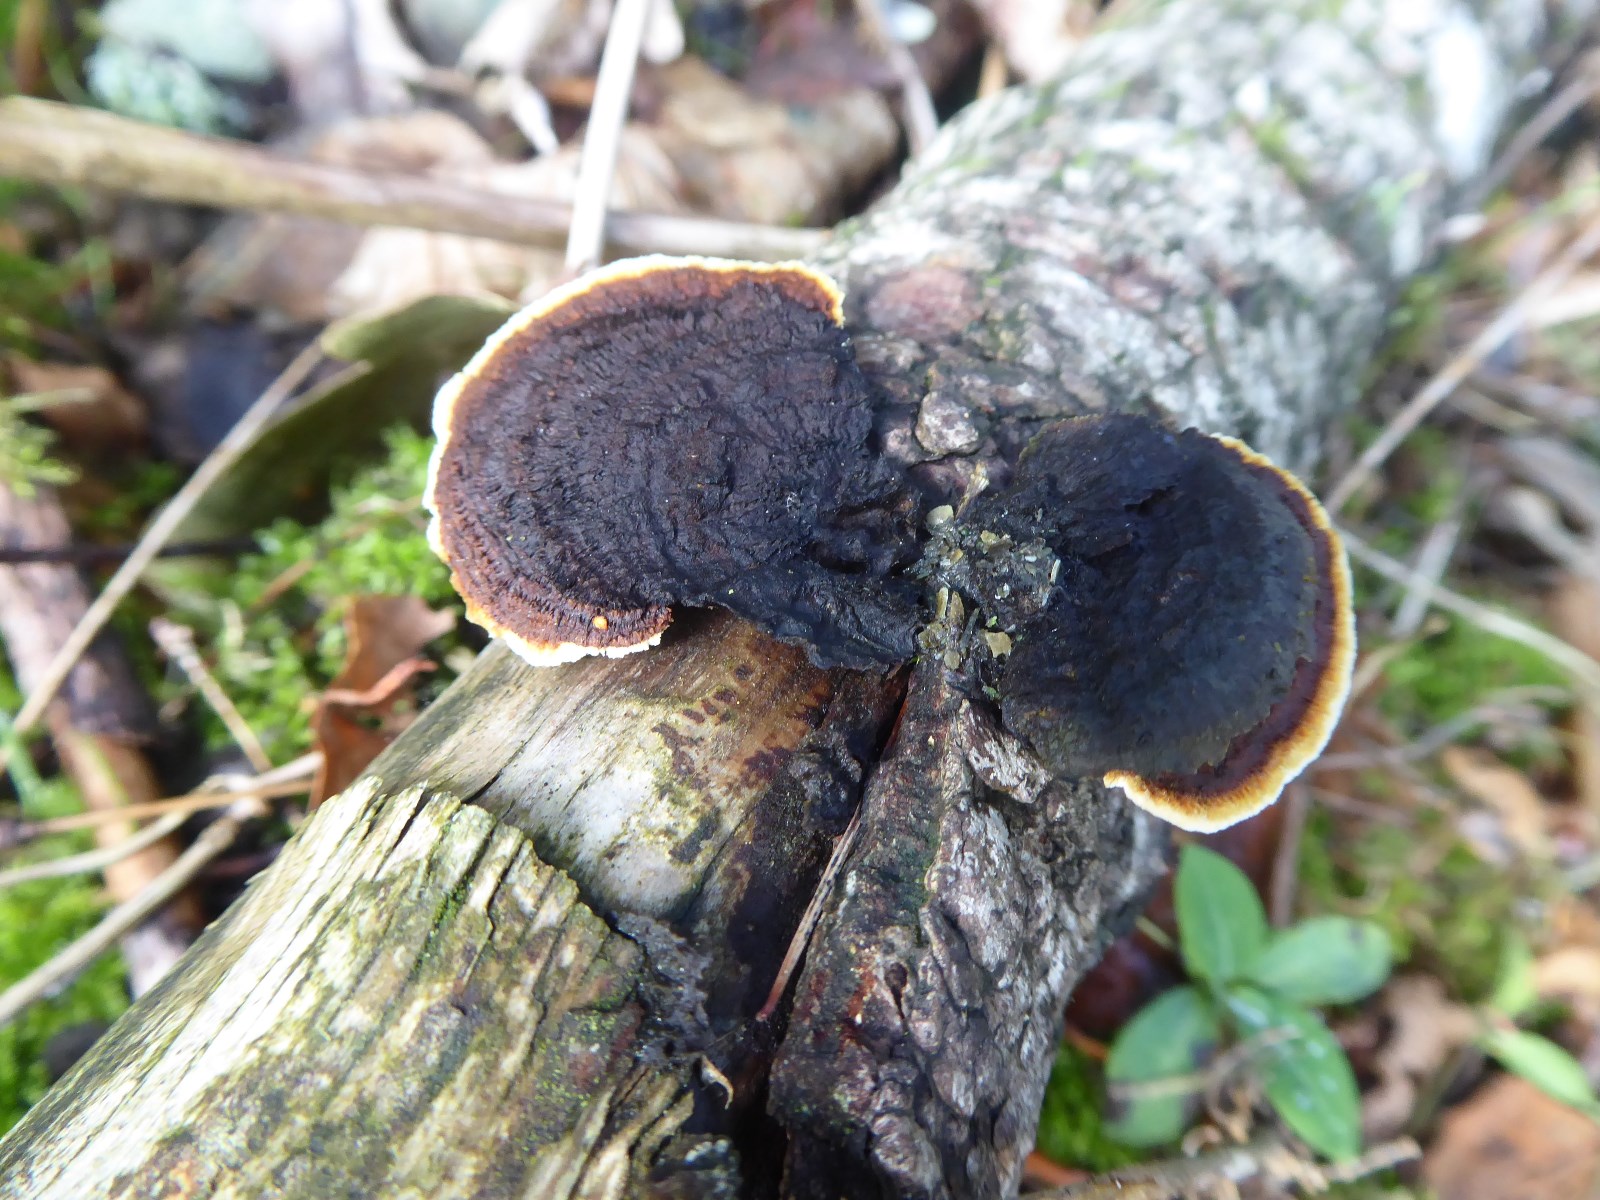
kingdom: Fungi
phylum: Basidiomycota
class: Agaricomycetes
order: Gloeophyllales
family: Gloeophyllaceae
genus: Gloeophyllum
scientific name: Gloeophyllum sepiarium
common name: fyrre-korkhat
